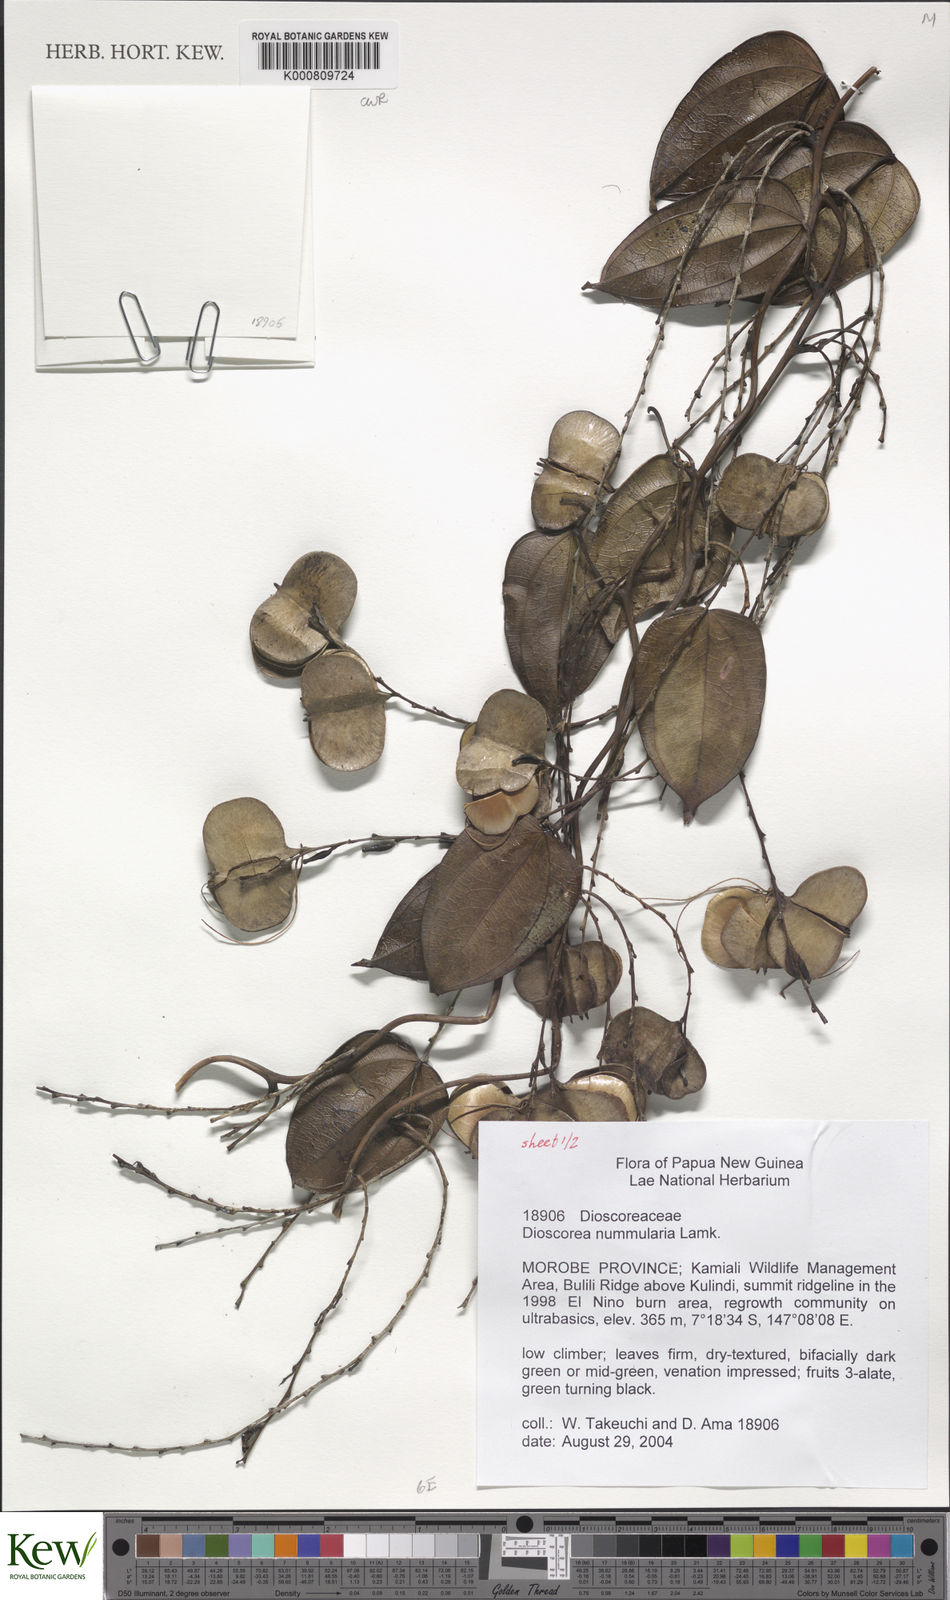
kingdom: Plantae
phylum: Tracheophyta
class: Liliopsida
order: Dioscoreales
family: Dioscoreaceae
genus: Dioscorea
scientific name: Dioscorea nummularia
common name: Pacific yam
